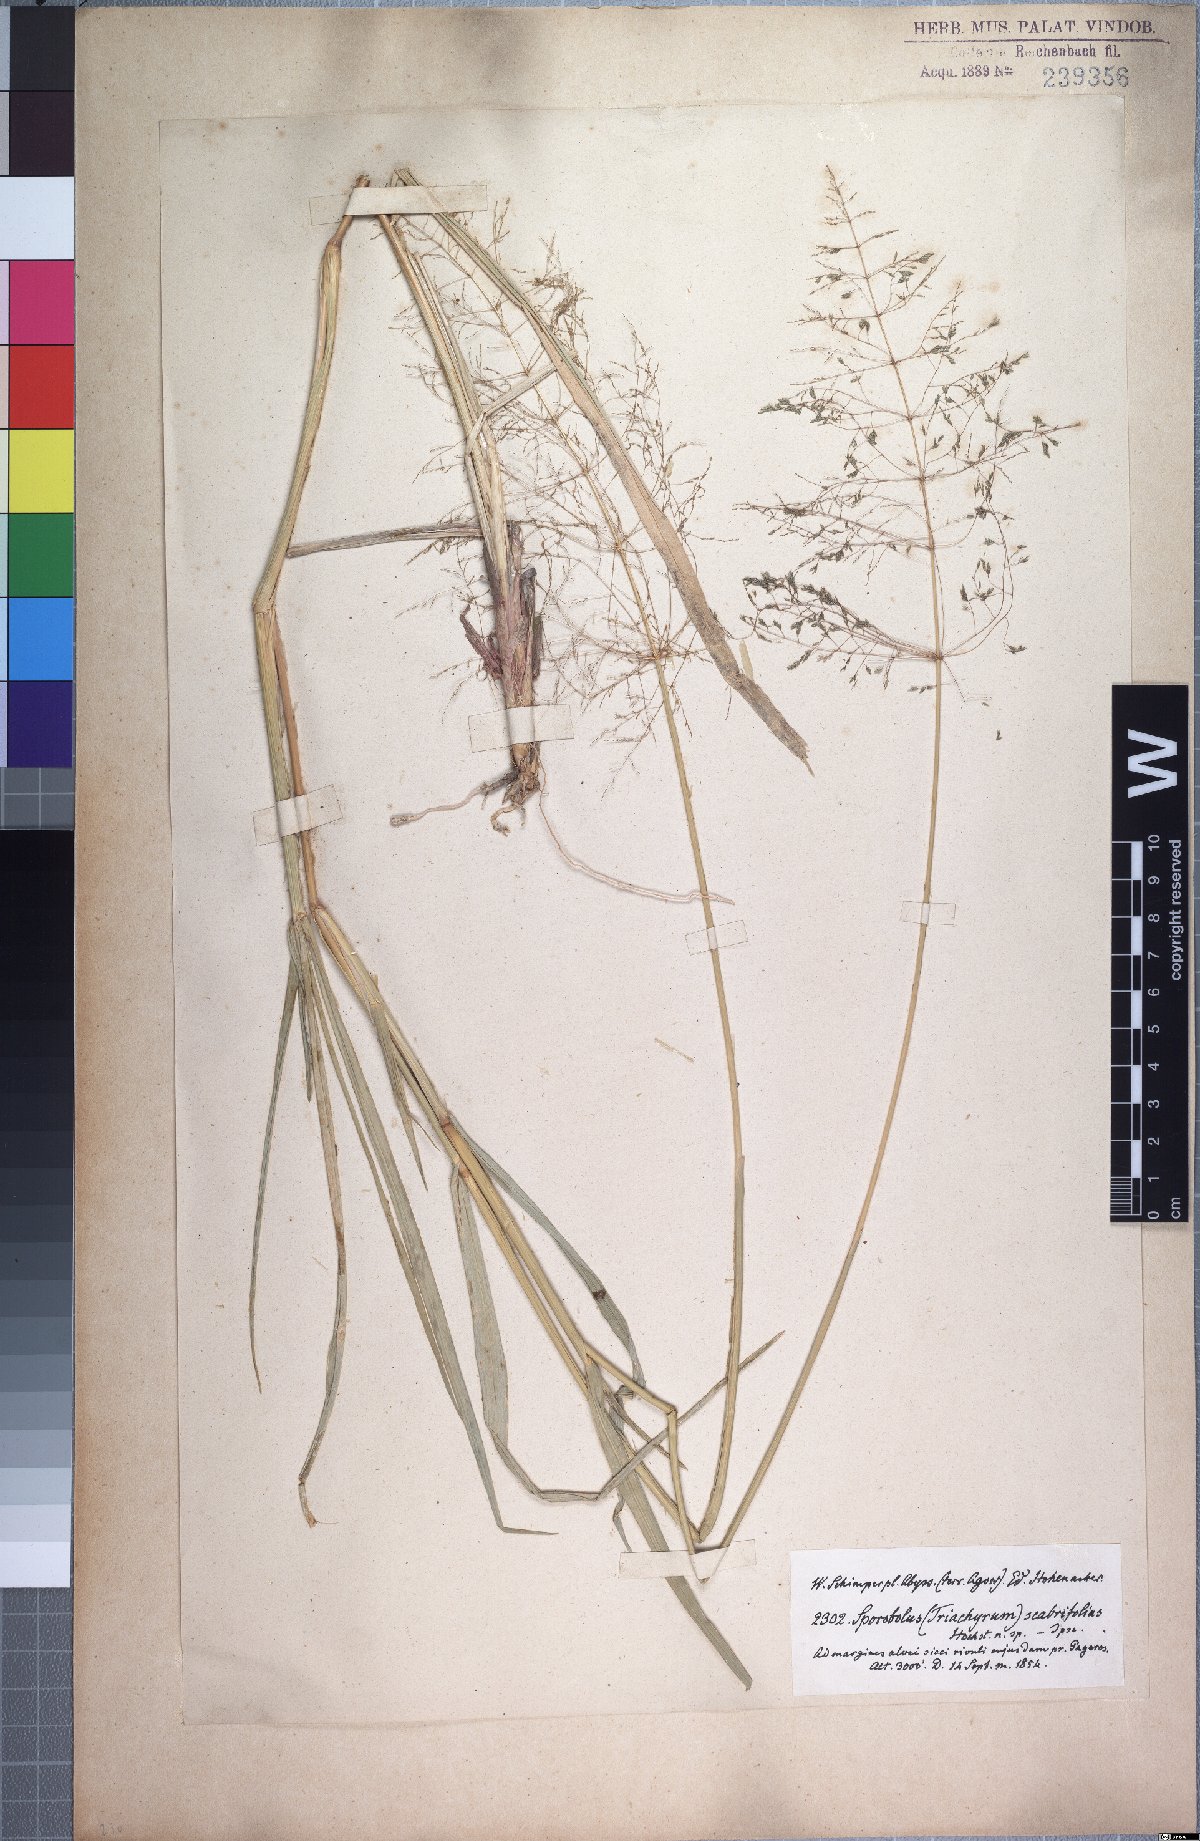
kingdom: Plantae
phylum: Tracheophyta
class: Liliopsida
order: Poales
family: Poaceae
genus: Sporobolus
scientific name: Sporobolus ioclados
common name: Pan dropseed
